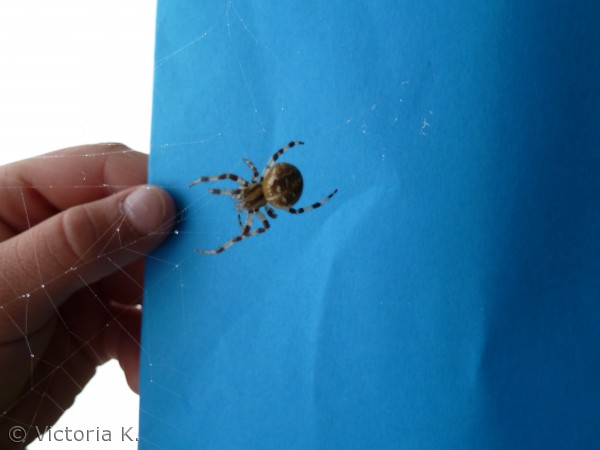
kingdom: Animalia
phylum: Arthropoda
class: Arachnida
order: Araneae
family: Araneidae
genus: Araneus
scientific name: Araneus quadratus
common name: Kvadratedderkop
